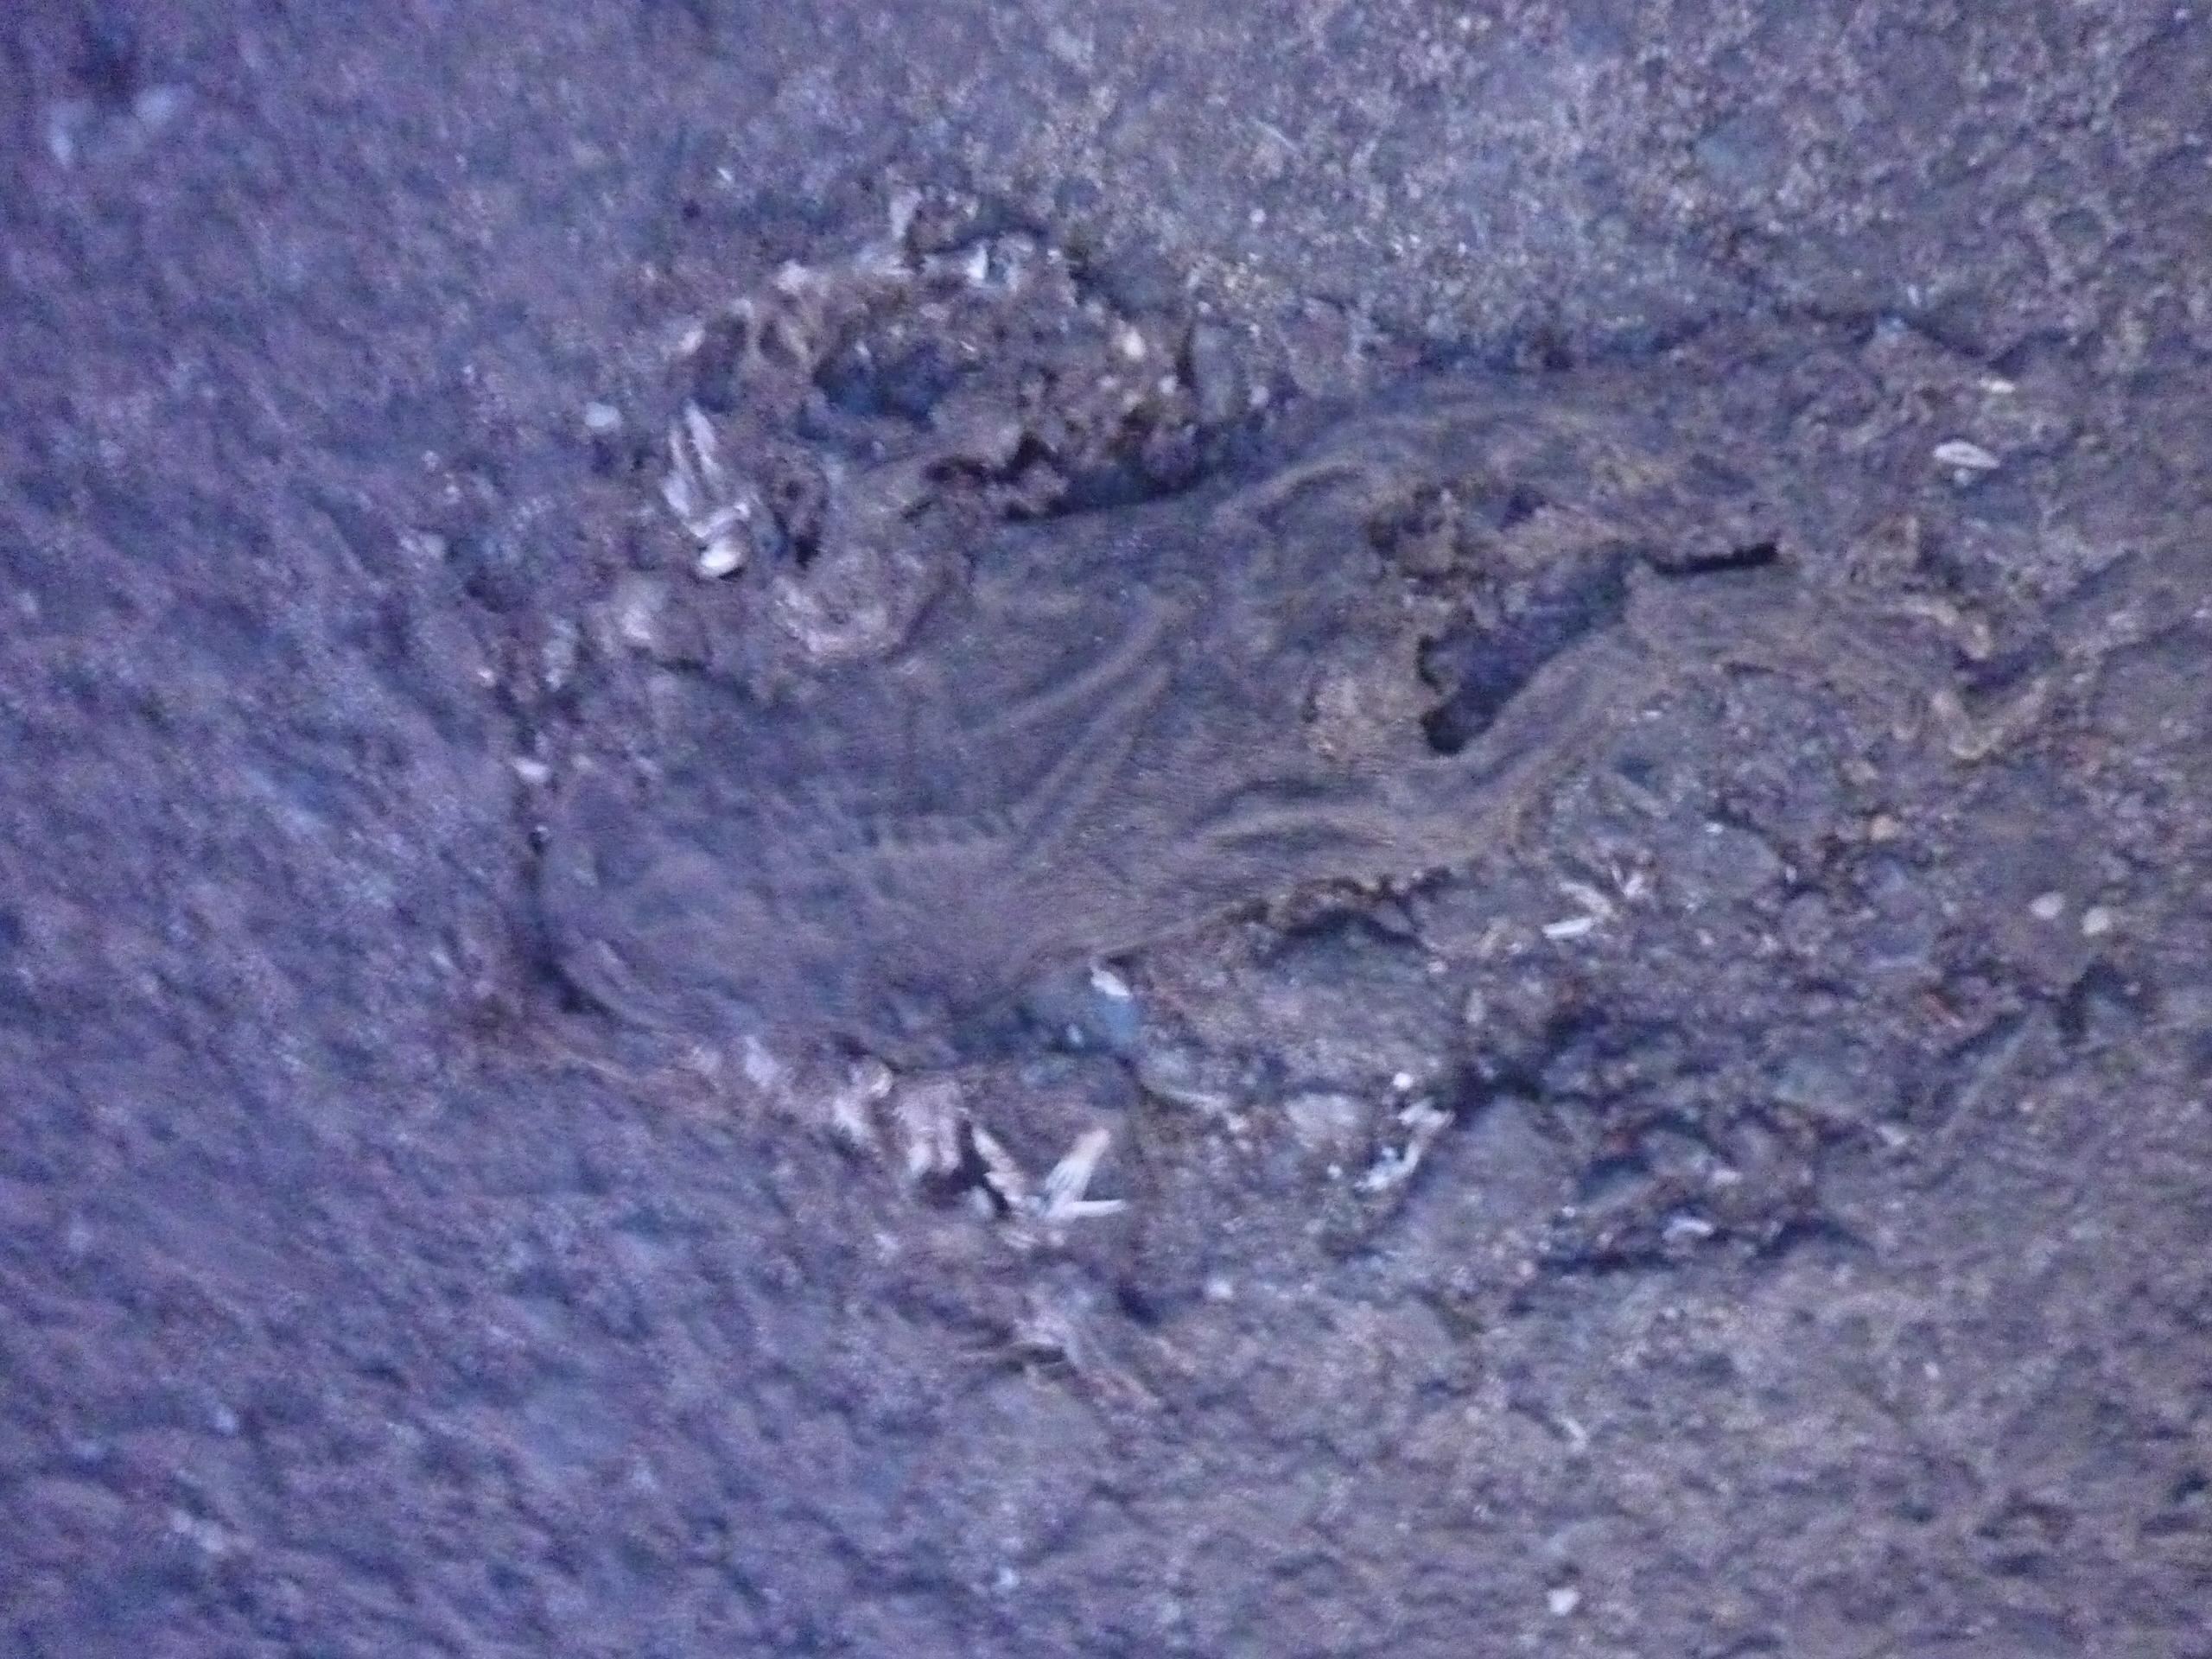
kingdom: Animalia
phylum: Chordata
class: Amphibia
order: Anura
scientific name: Anura
